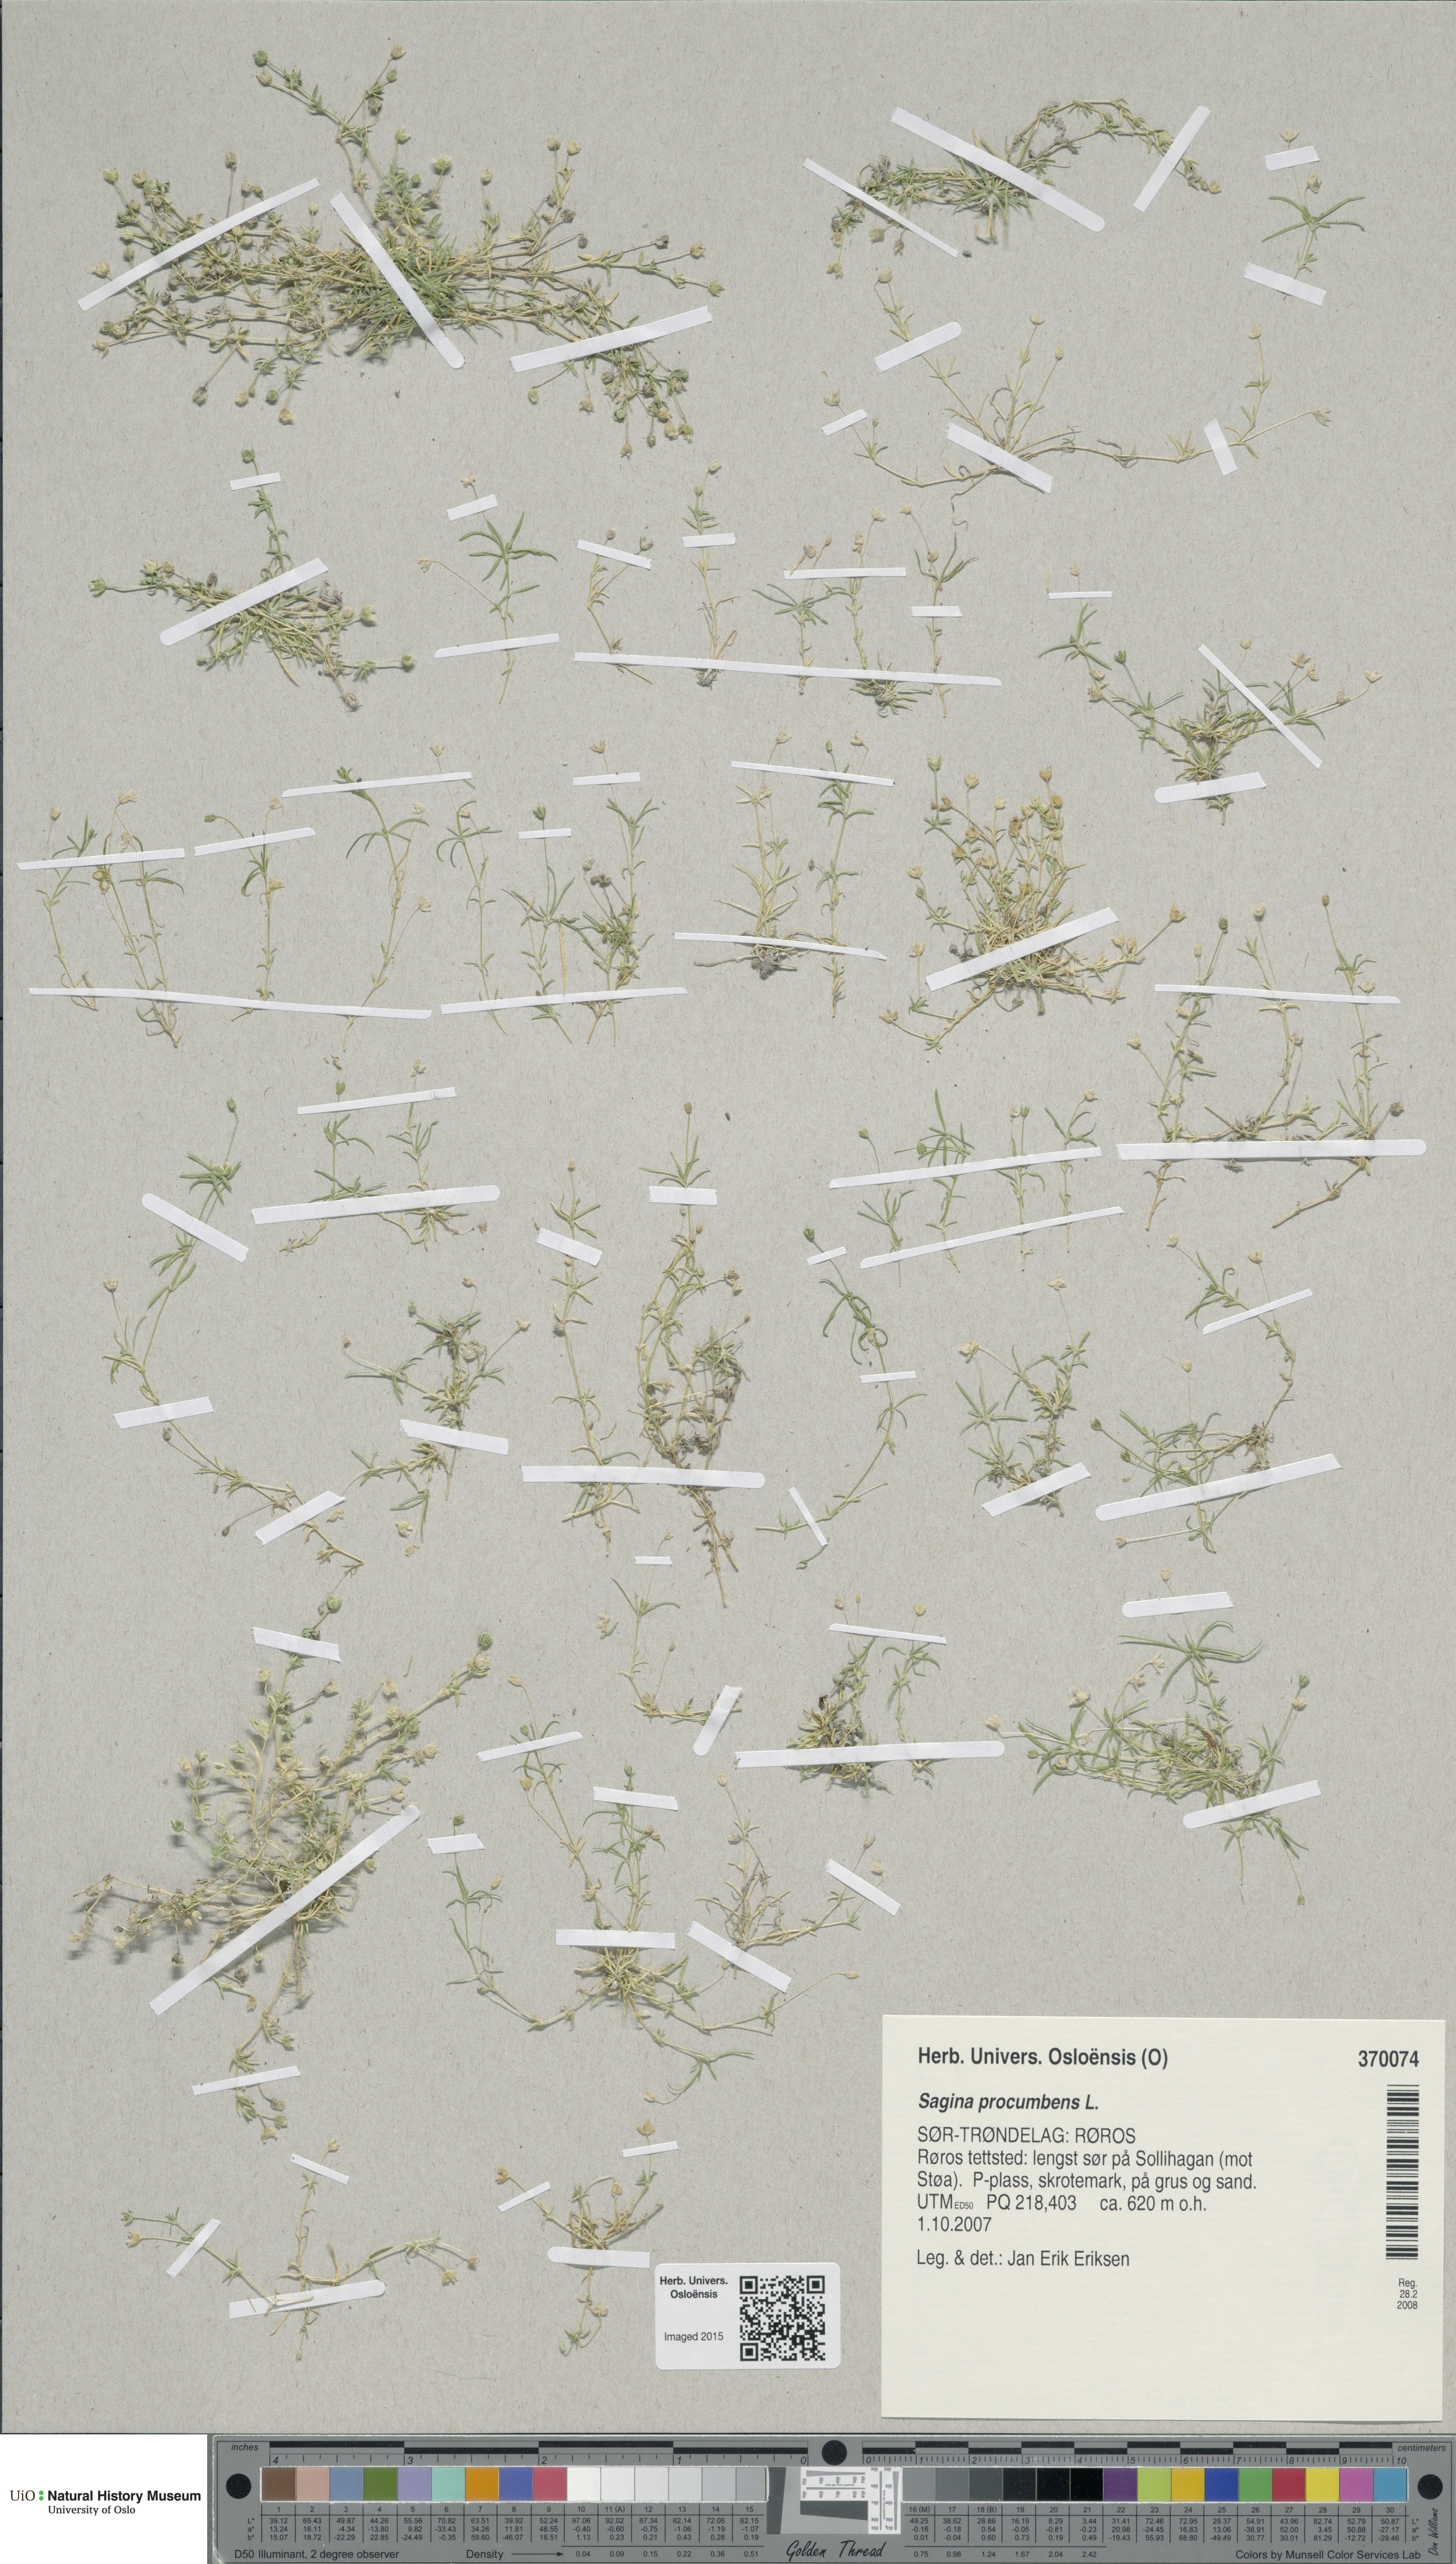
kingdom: Plantae
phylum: Tracheophyta
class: Magnoliopsida
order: Caryophyllales
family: Caryophyllaceae
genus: Sagina
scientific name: Sagina procumbens
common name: Procumbent pearlwort
